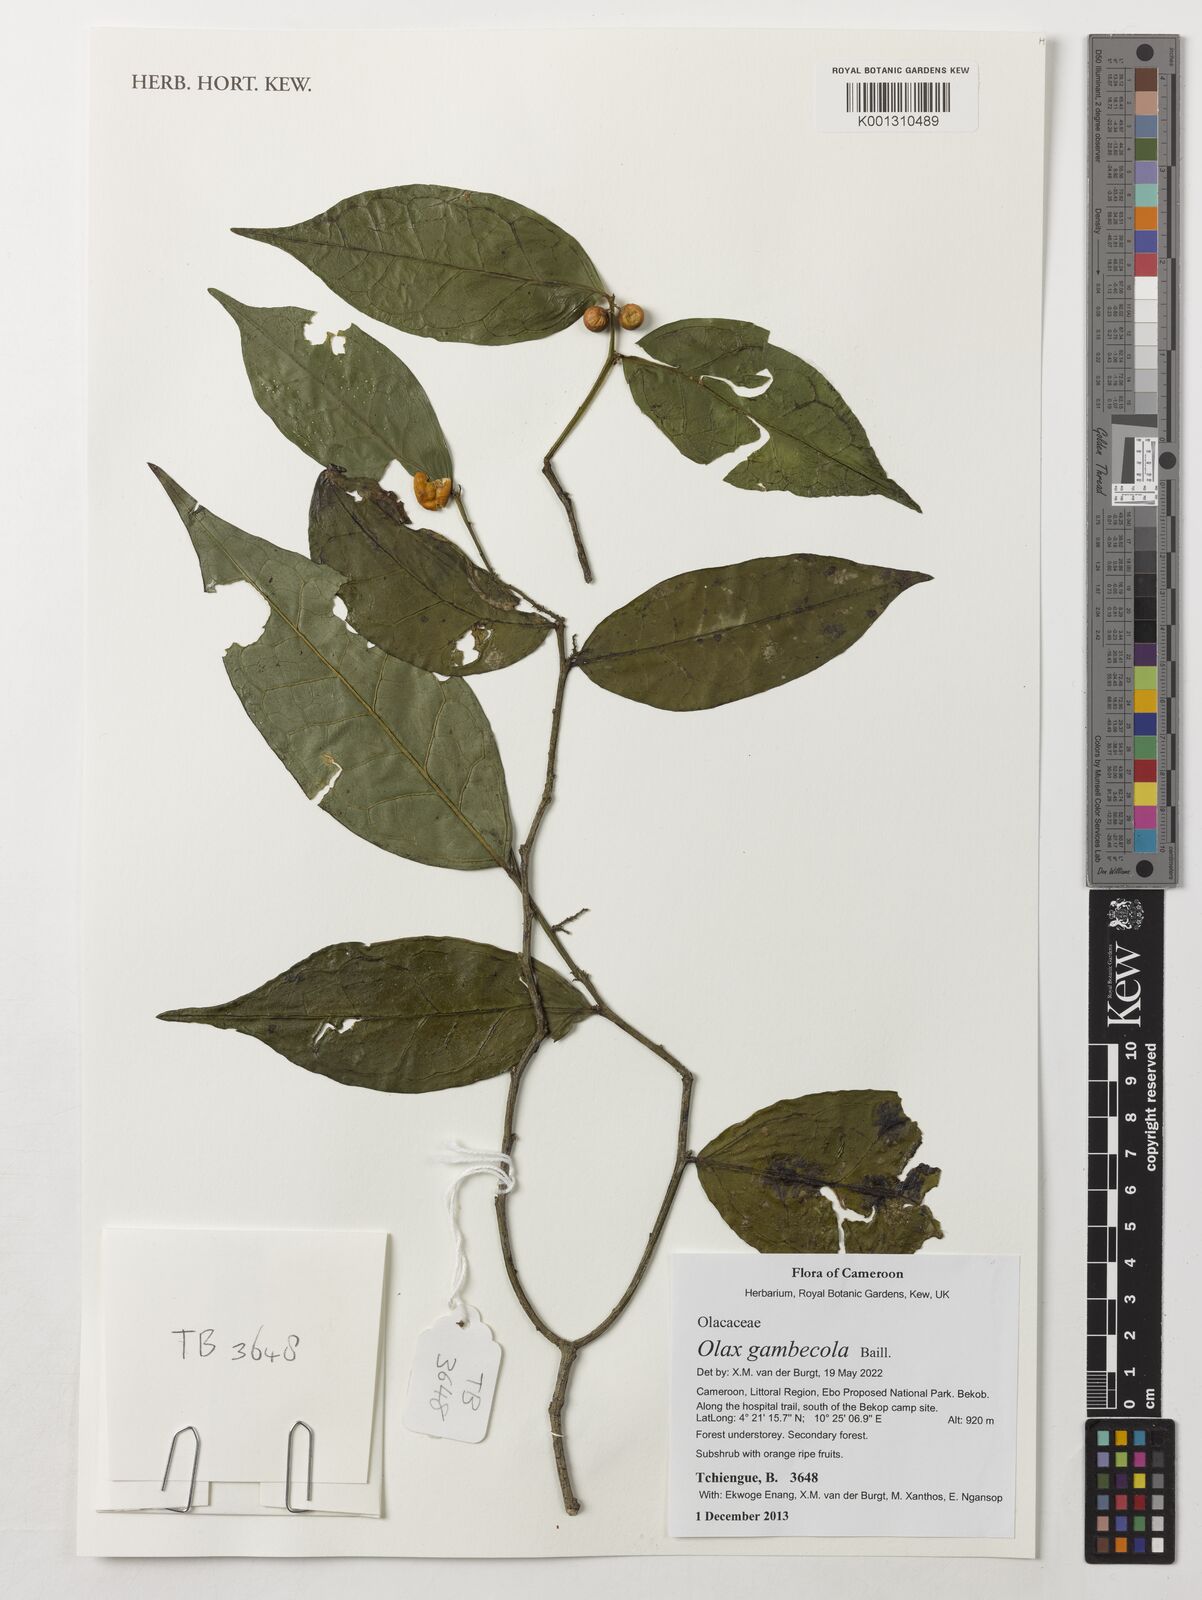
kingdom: Plantae
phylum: Tracheophyta
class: Magnoliopsida
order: Santalales
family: Olacaceae
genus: Olax
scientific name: Olax gambecola
